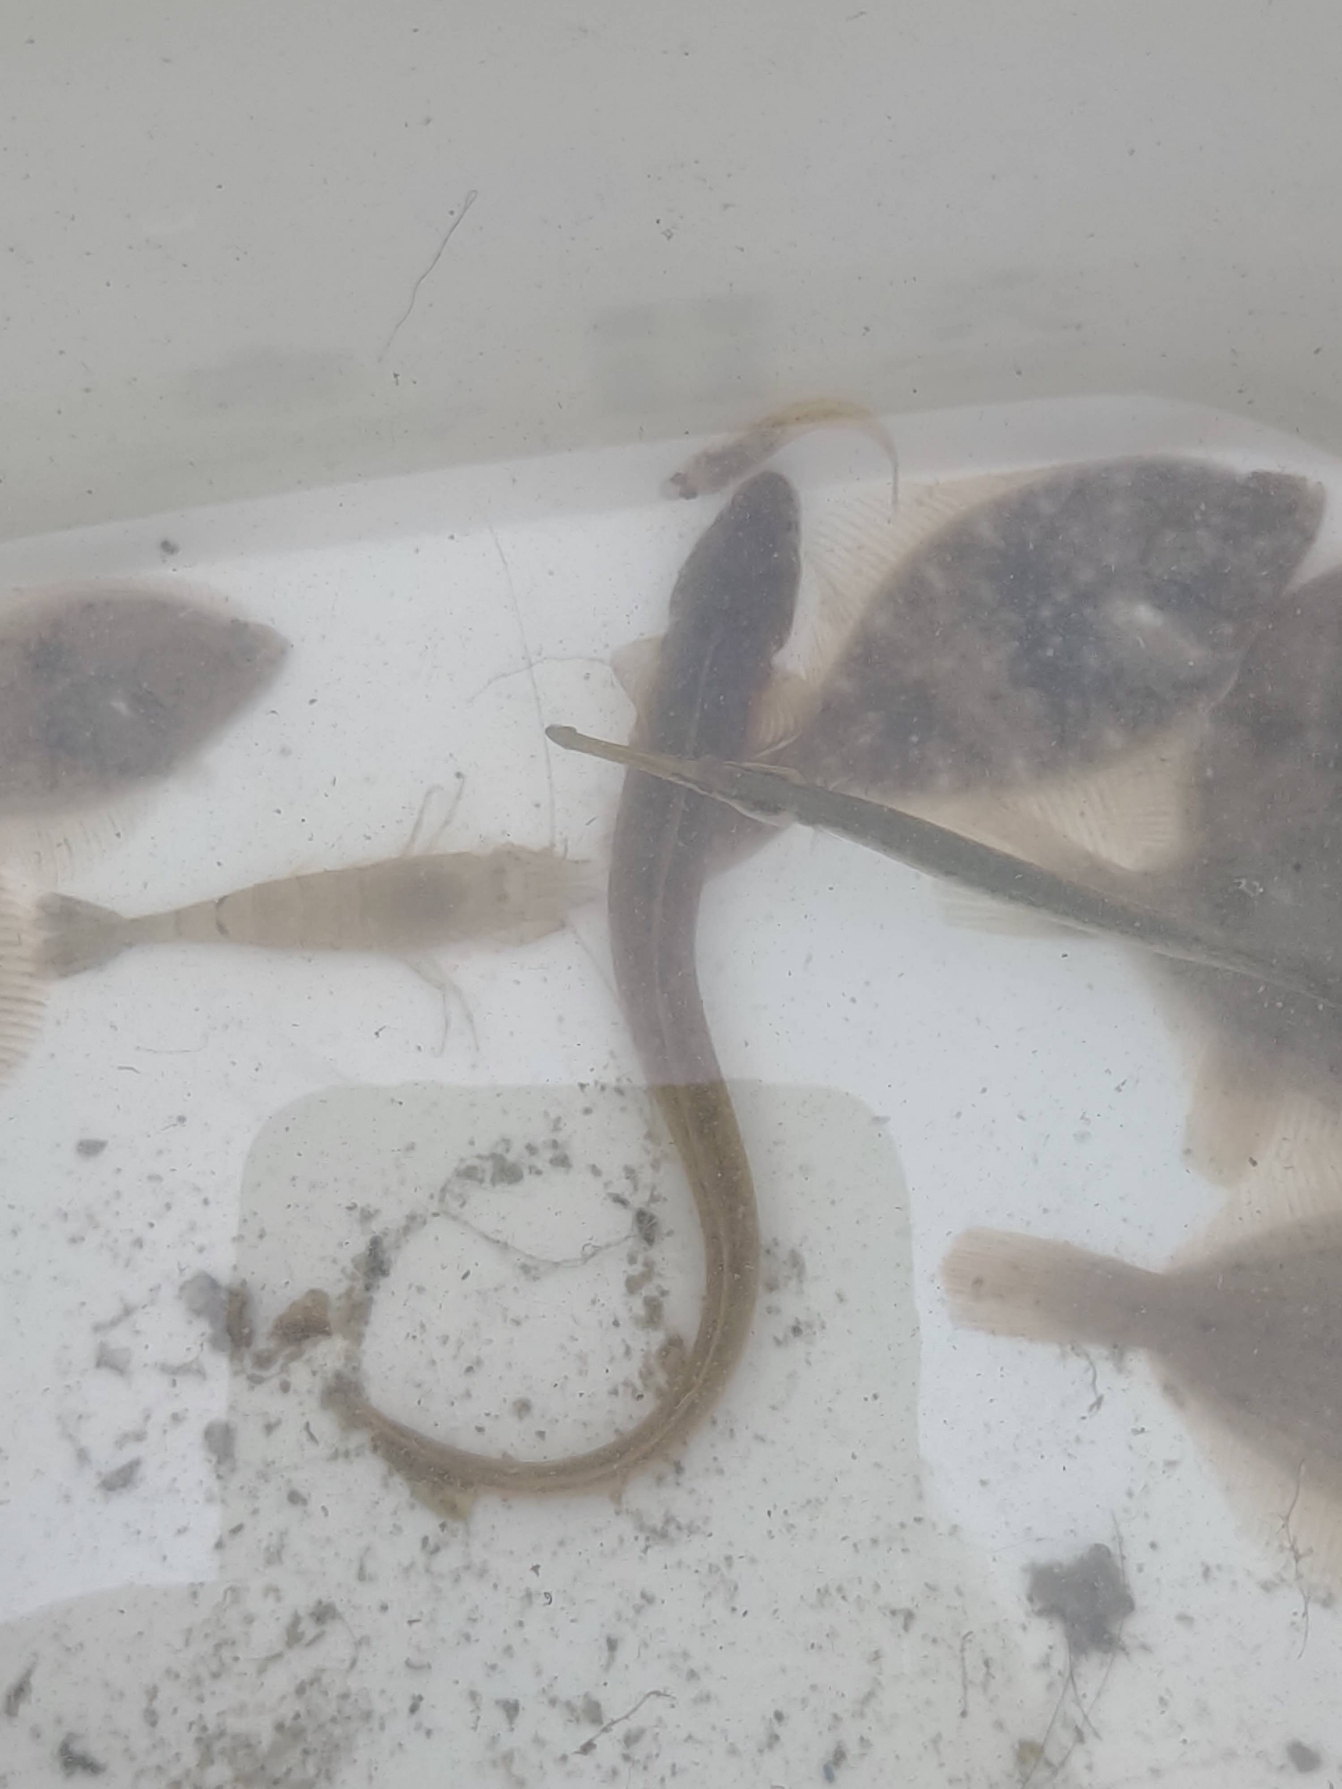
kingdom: Animalia
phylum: Chordata
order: Perciformes
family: Zoarcidae
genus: Zoarces
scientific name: Zoarces viviparus
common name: Ålekvabbe
